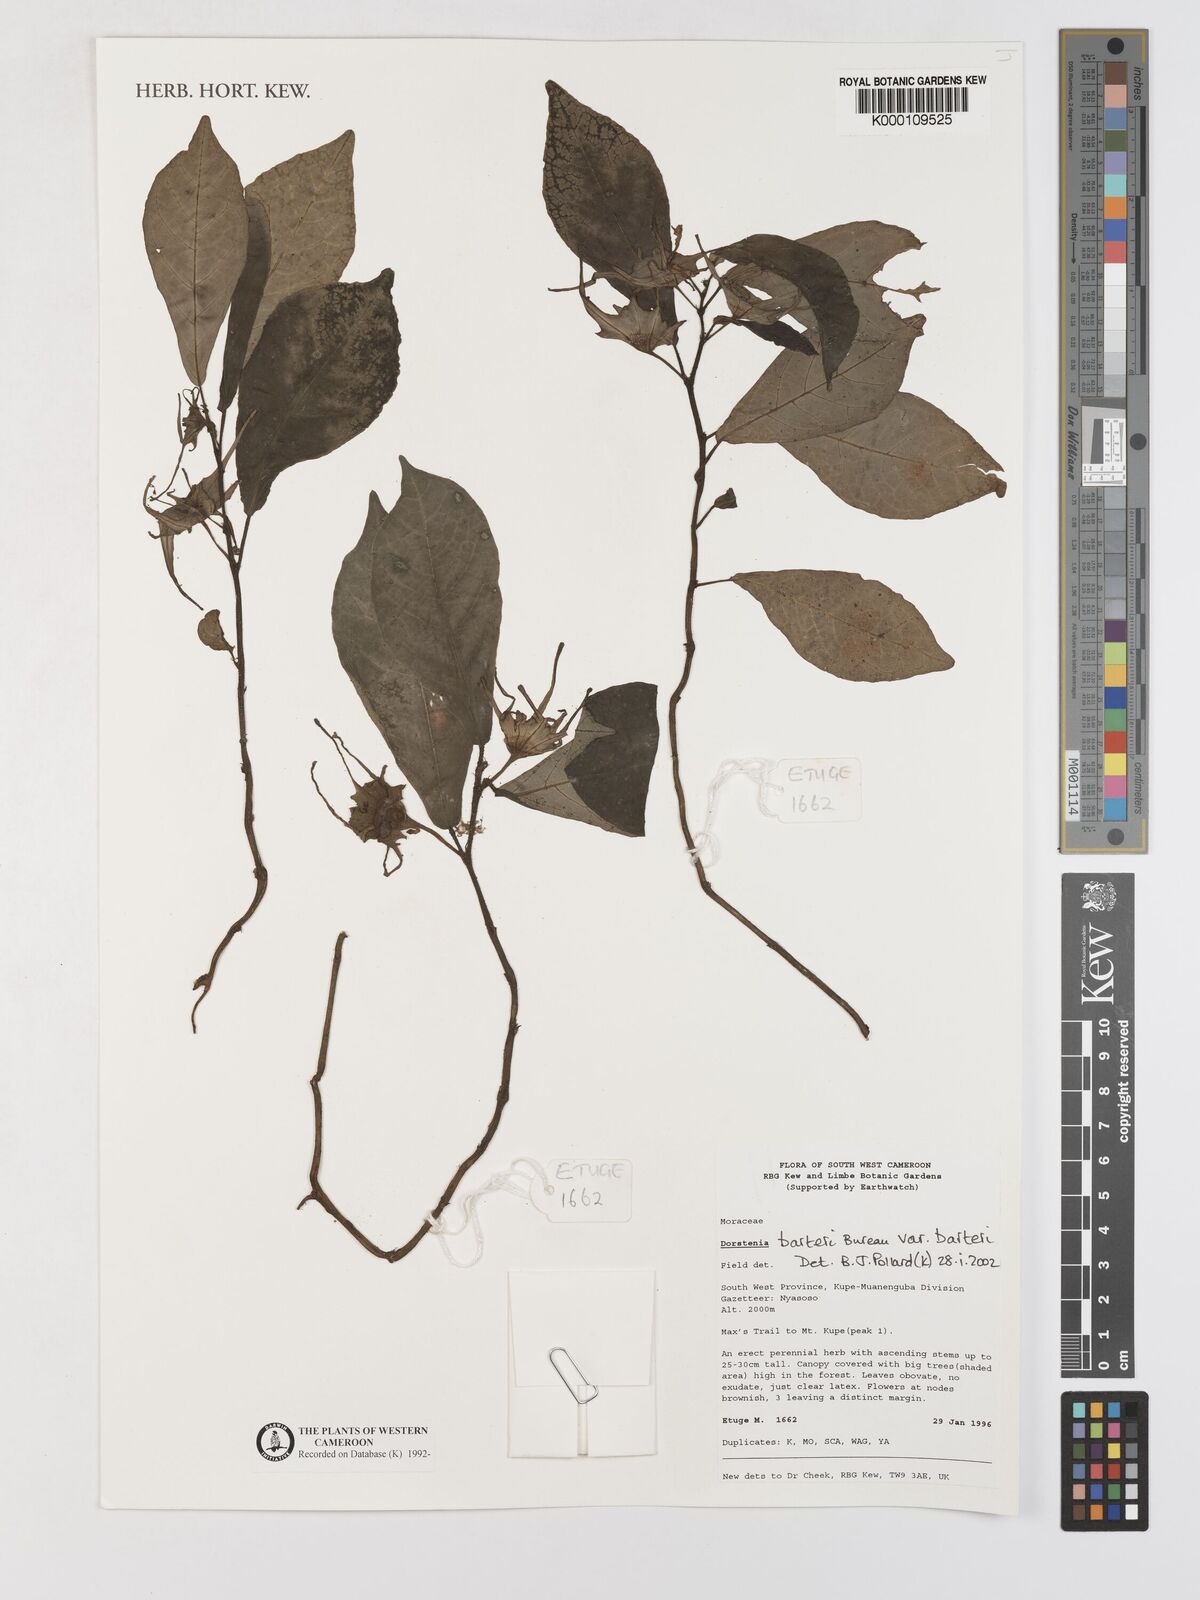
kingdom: Plantae
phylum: Tracheophyta
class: Magnoliopsida
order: Rosales
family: Moraceae
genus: Dorstenia
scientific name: Dorstenia barteri
